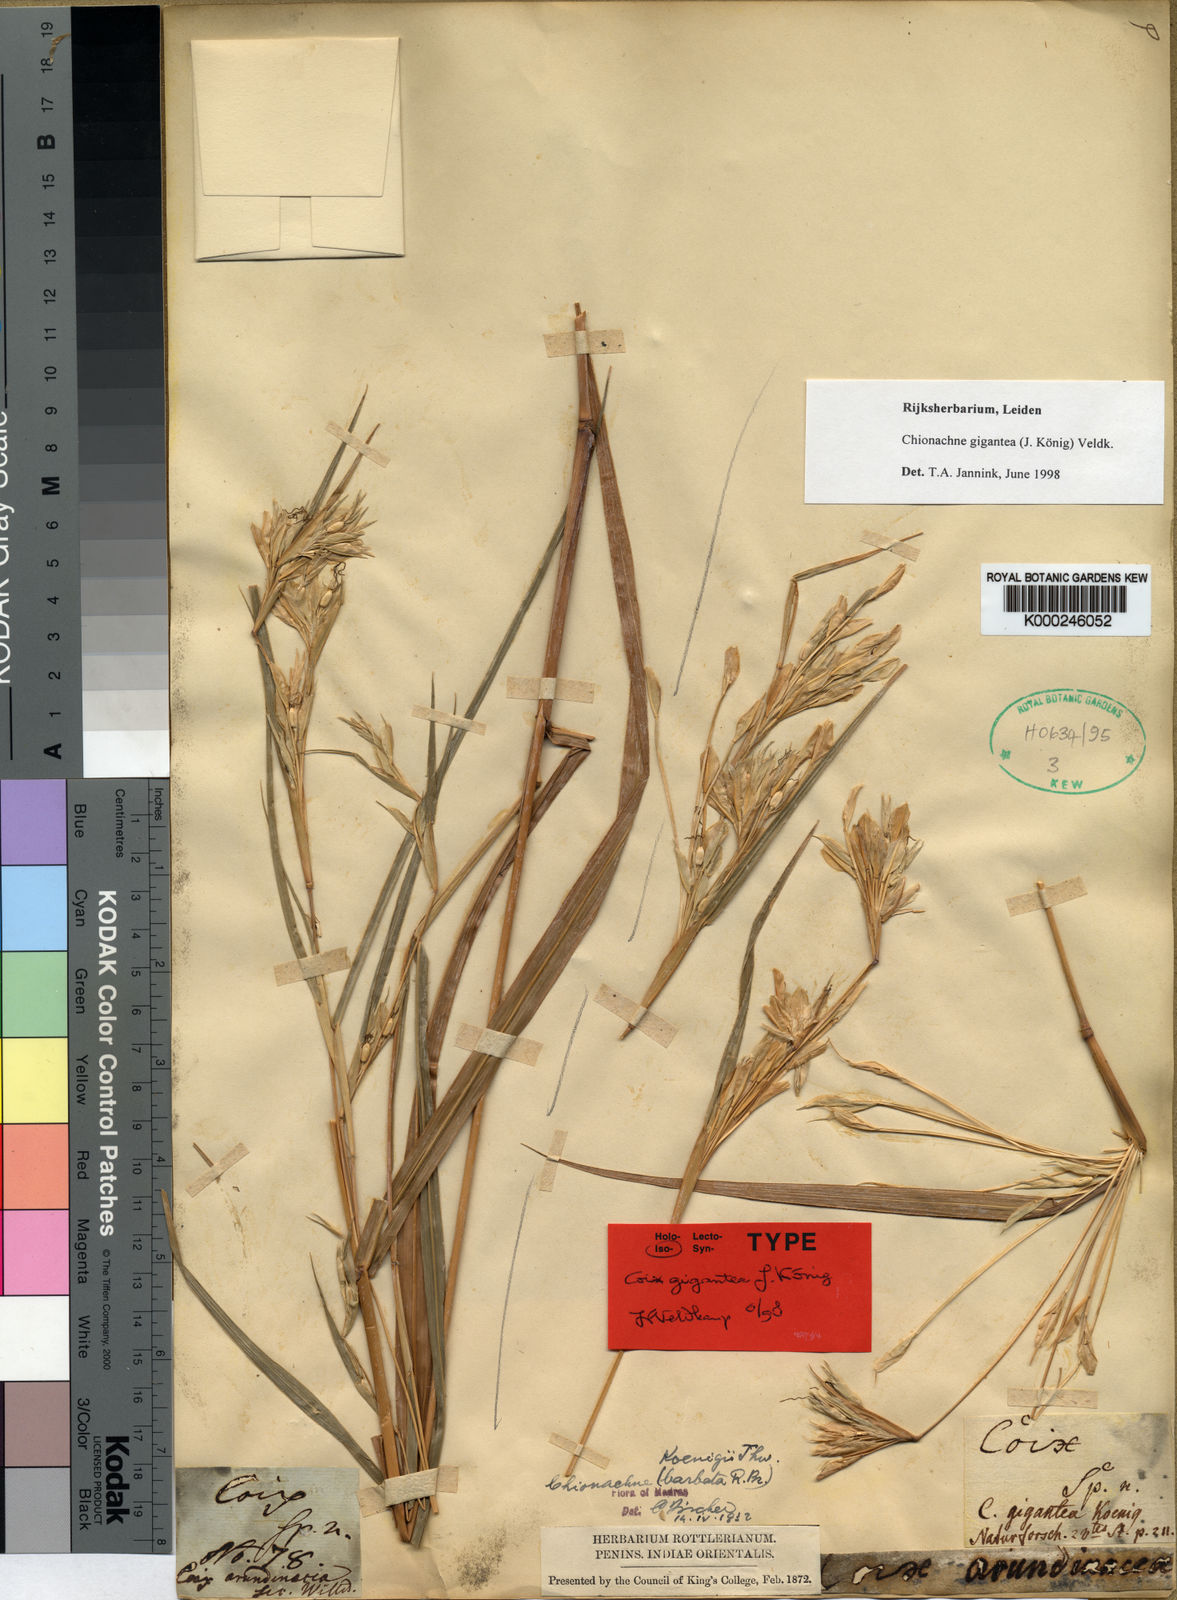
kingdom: Plantae
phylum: Tracheophyta
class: Liliopsida
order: Poales
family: Poaceae
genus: Polytoca
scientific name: Polytoca gigantea
